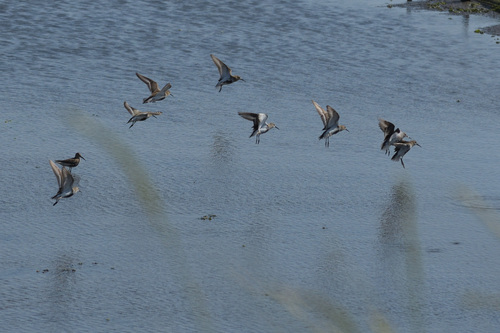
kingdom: Animalia
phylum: Chordata
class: Aves
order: Charadriiformes
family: Scolopacidae
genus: Calidris
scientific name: Calidris alpina
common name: Dunlin
